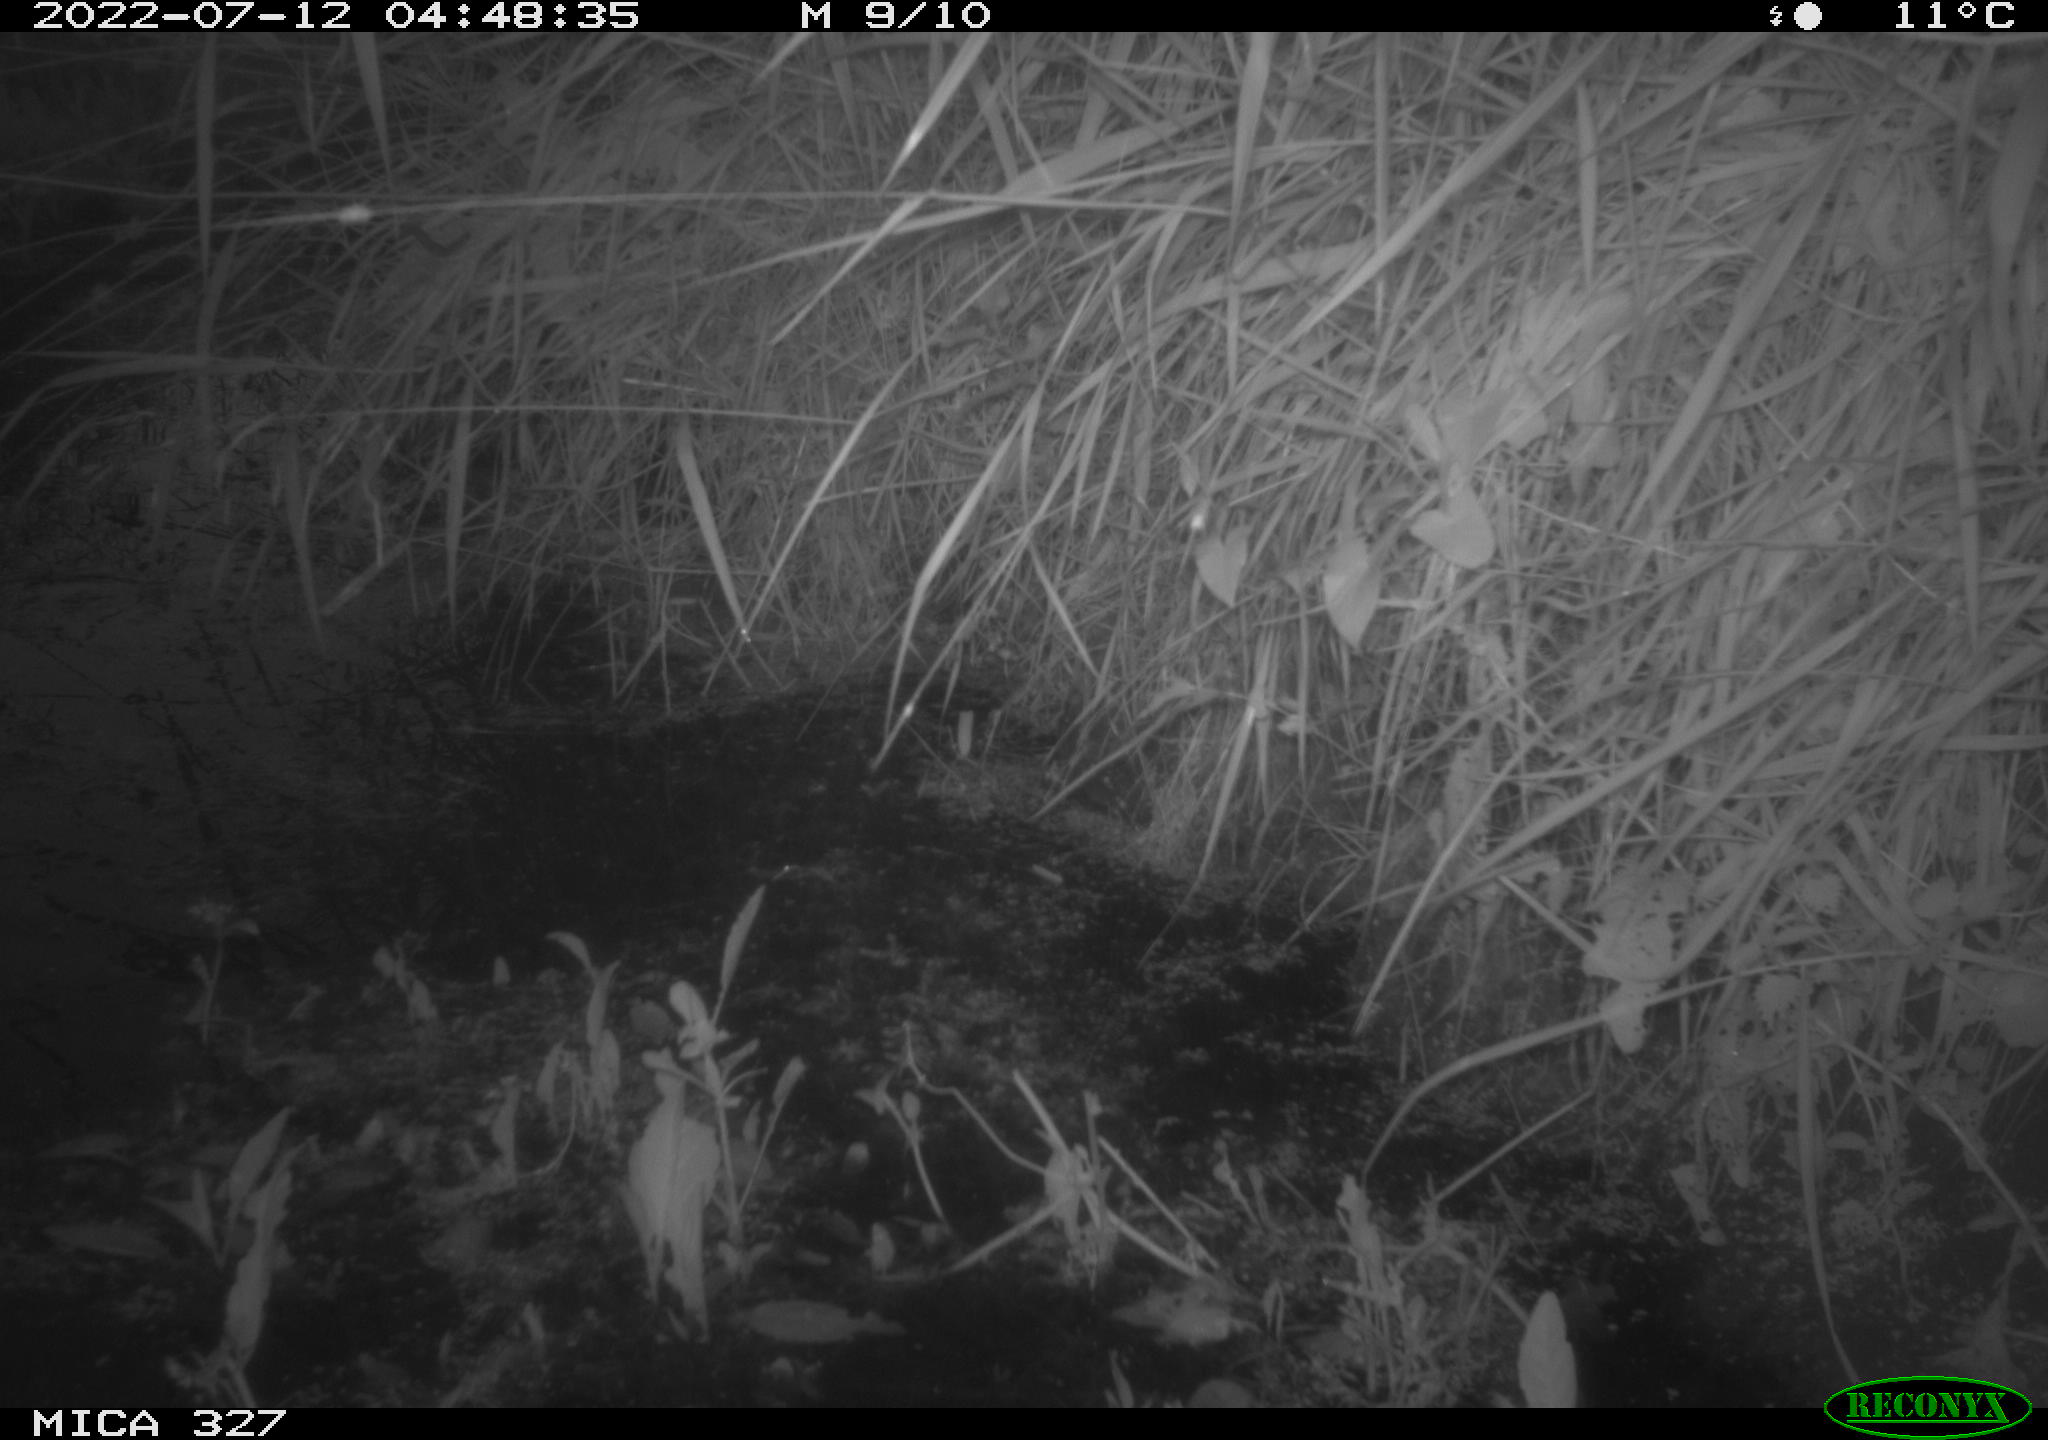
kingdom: Animalia
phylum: Chordata
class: Mammalia
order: Rodentia
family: Cricetidae
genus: Ondatra
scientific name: Ondatra zibethicus
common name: Muskrat
